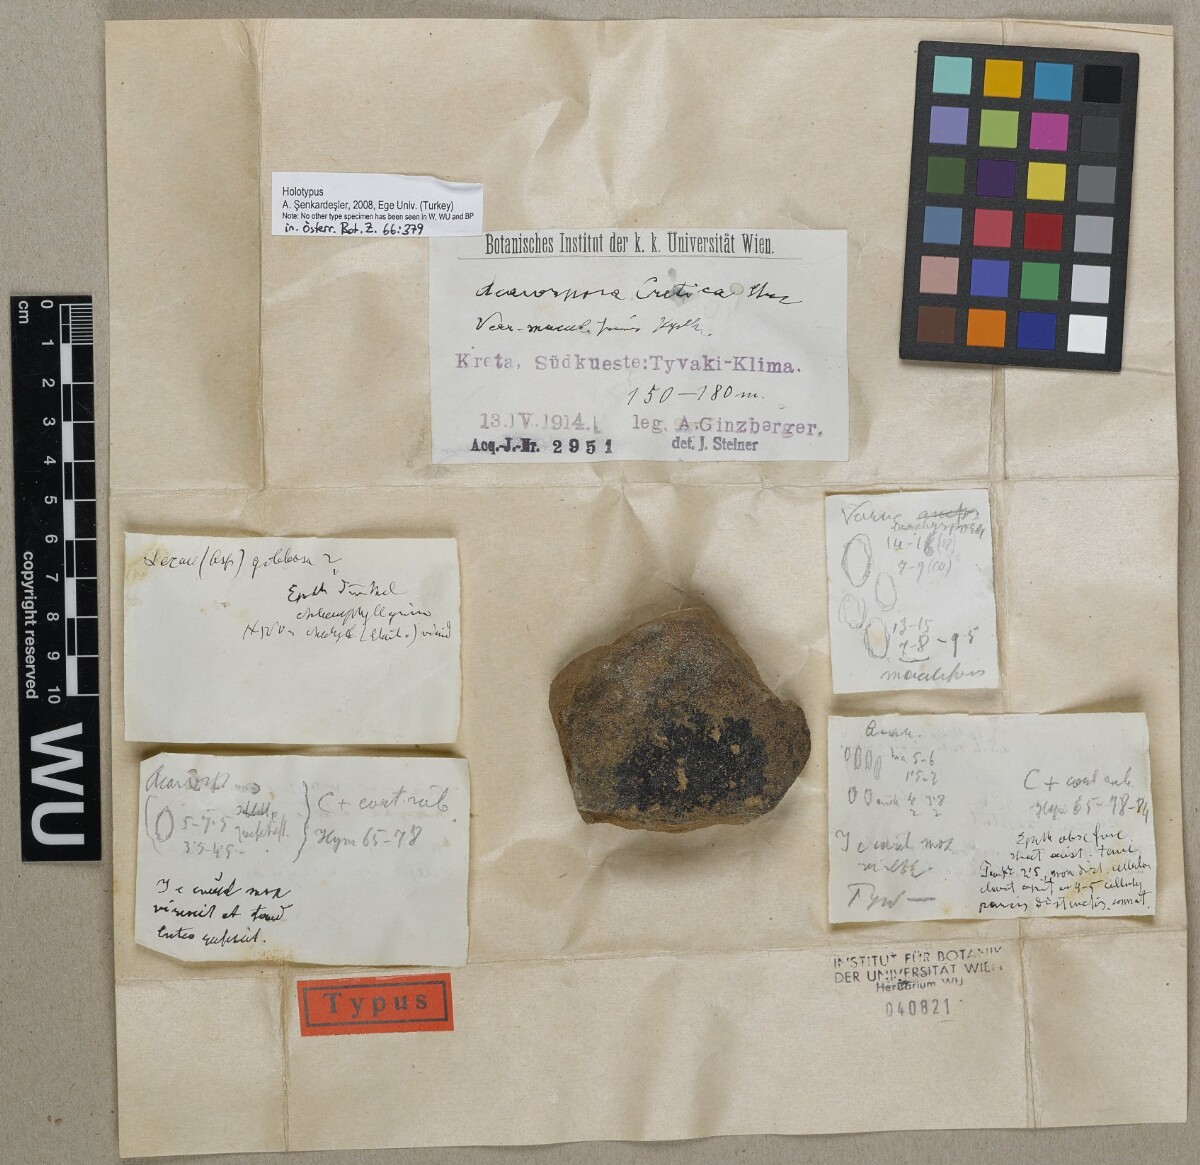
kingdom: Fungi
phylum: Ascomycota
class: Lecanoromycetes
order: Acarosporales
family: Acarosporaceae
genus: Acarospora
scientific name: Acarospora
